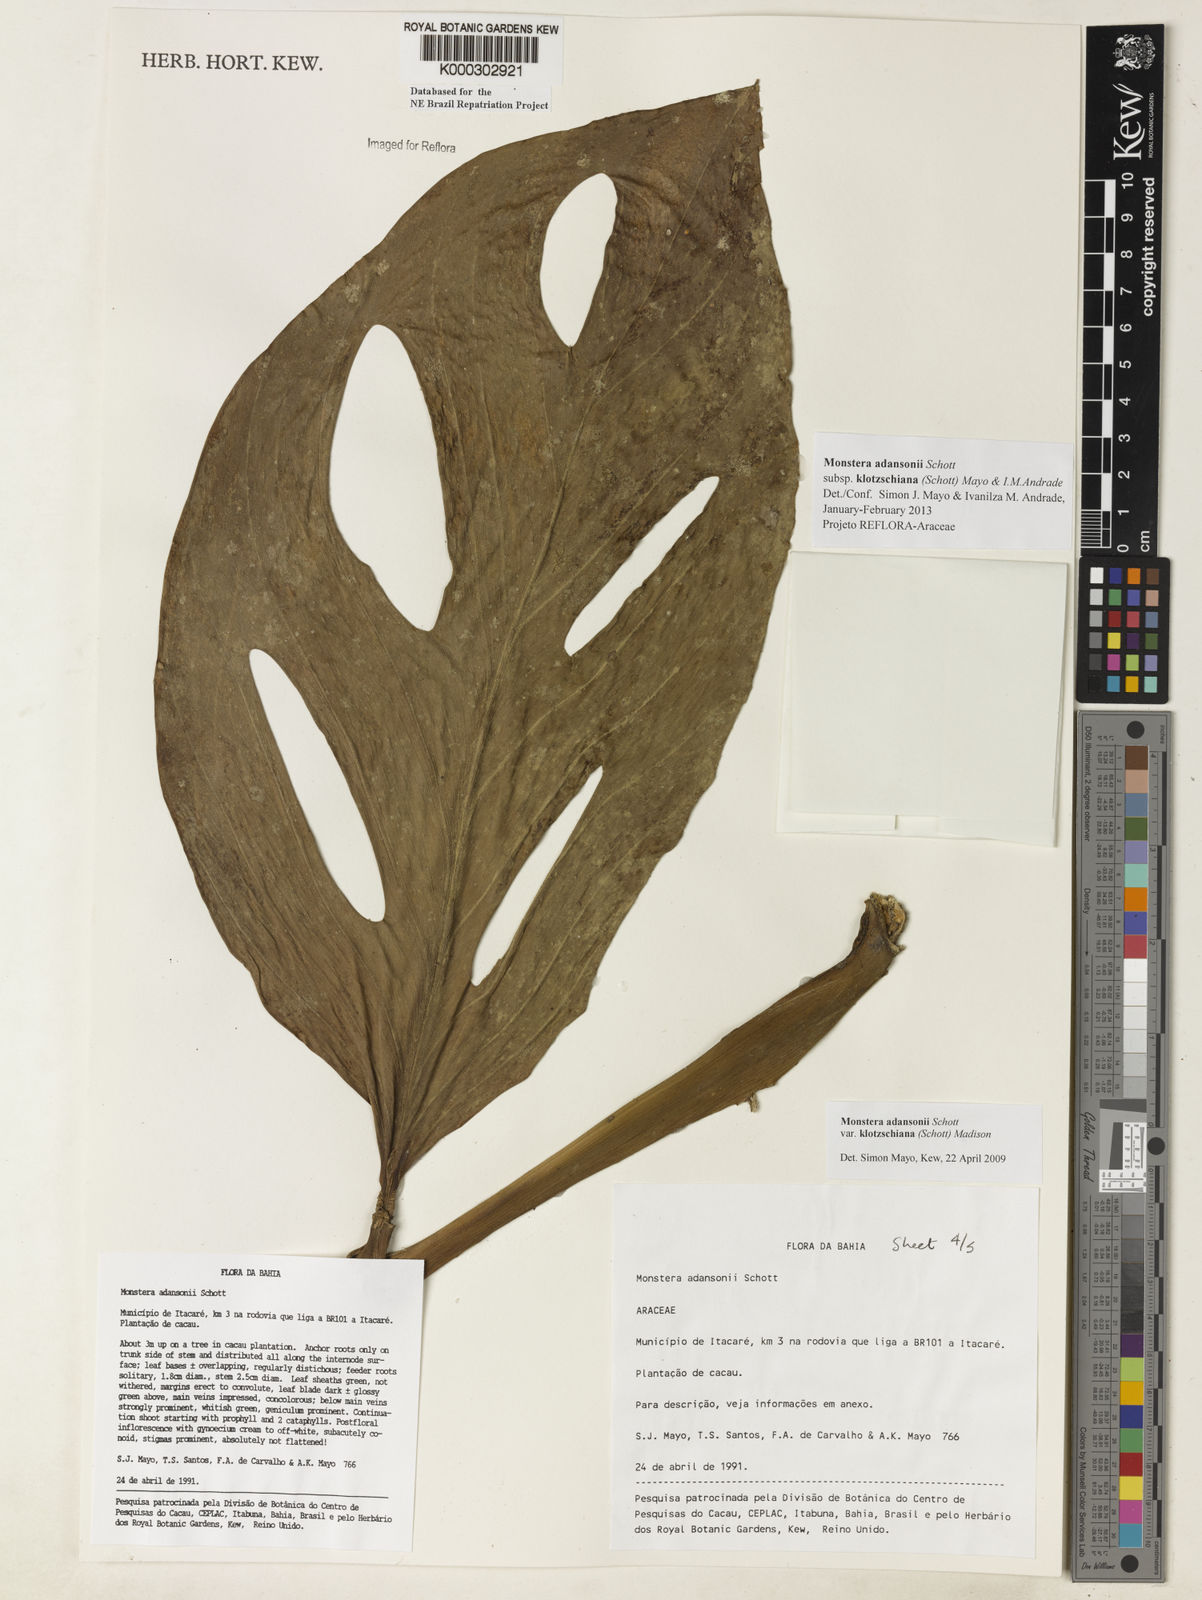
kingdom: Plantae
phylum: Tracheophyta
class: Liliopsida
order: Alismatales
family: Araceae
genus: Monstera
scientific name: Monstera adansonii
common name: Tarovine
